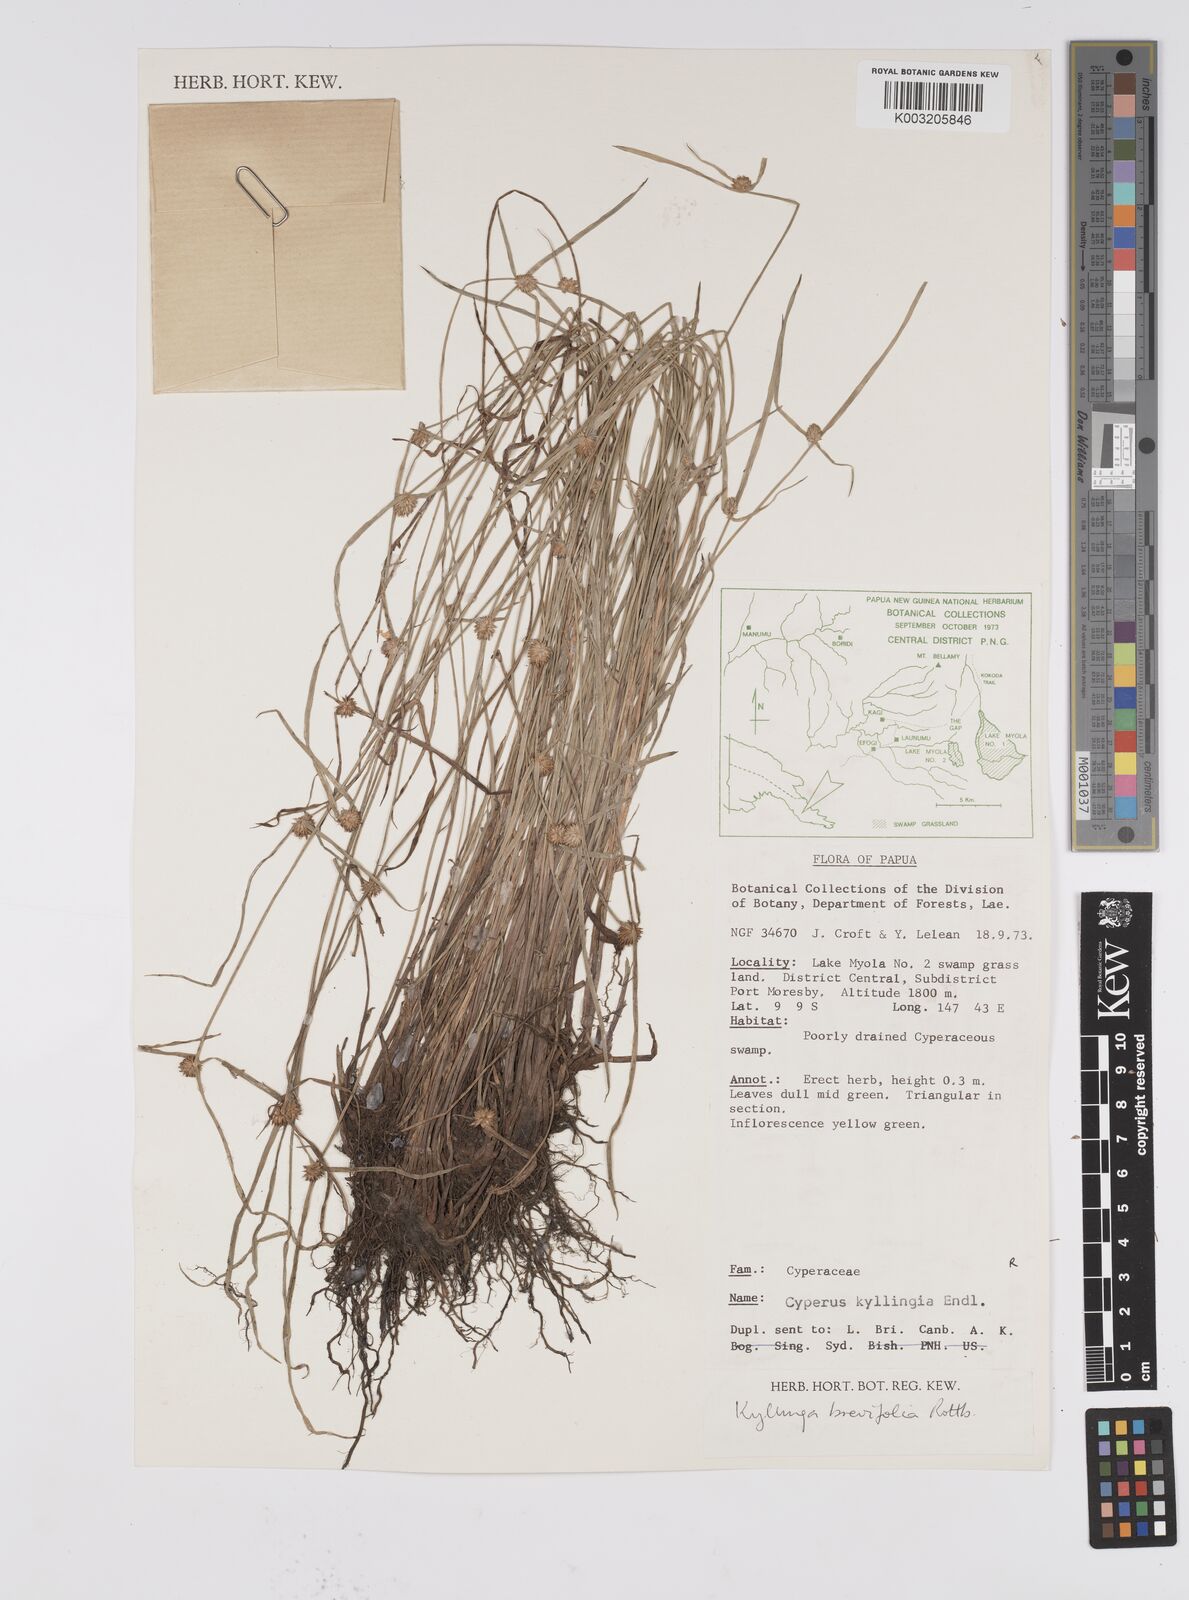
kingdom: Plantae
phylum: Tracheophyta
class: Liliopsida
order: Poales
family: Cyperaceae
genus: Cyperus
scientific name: Cyperus brevifolius
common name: Globe kyllinga
